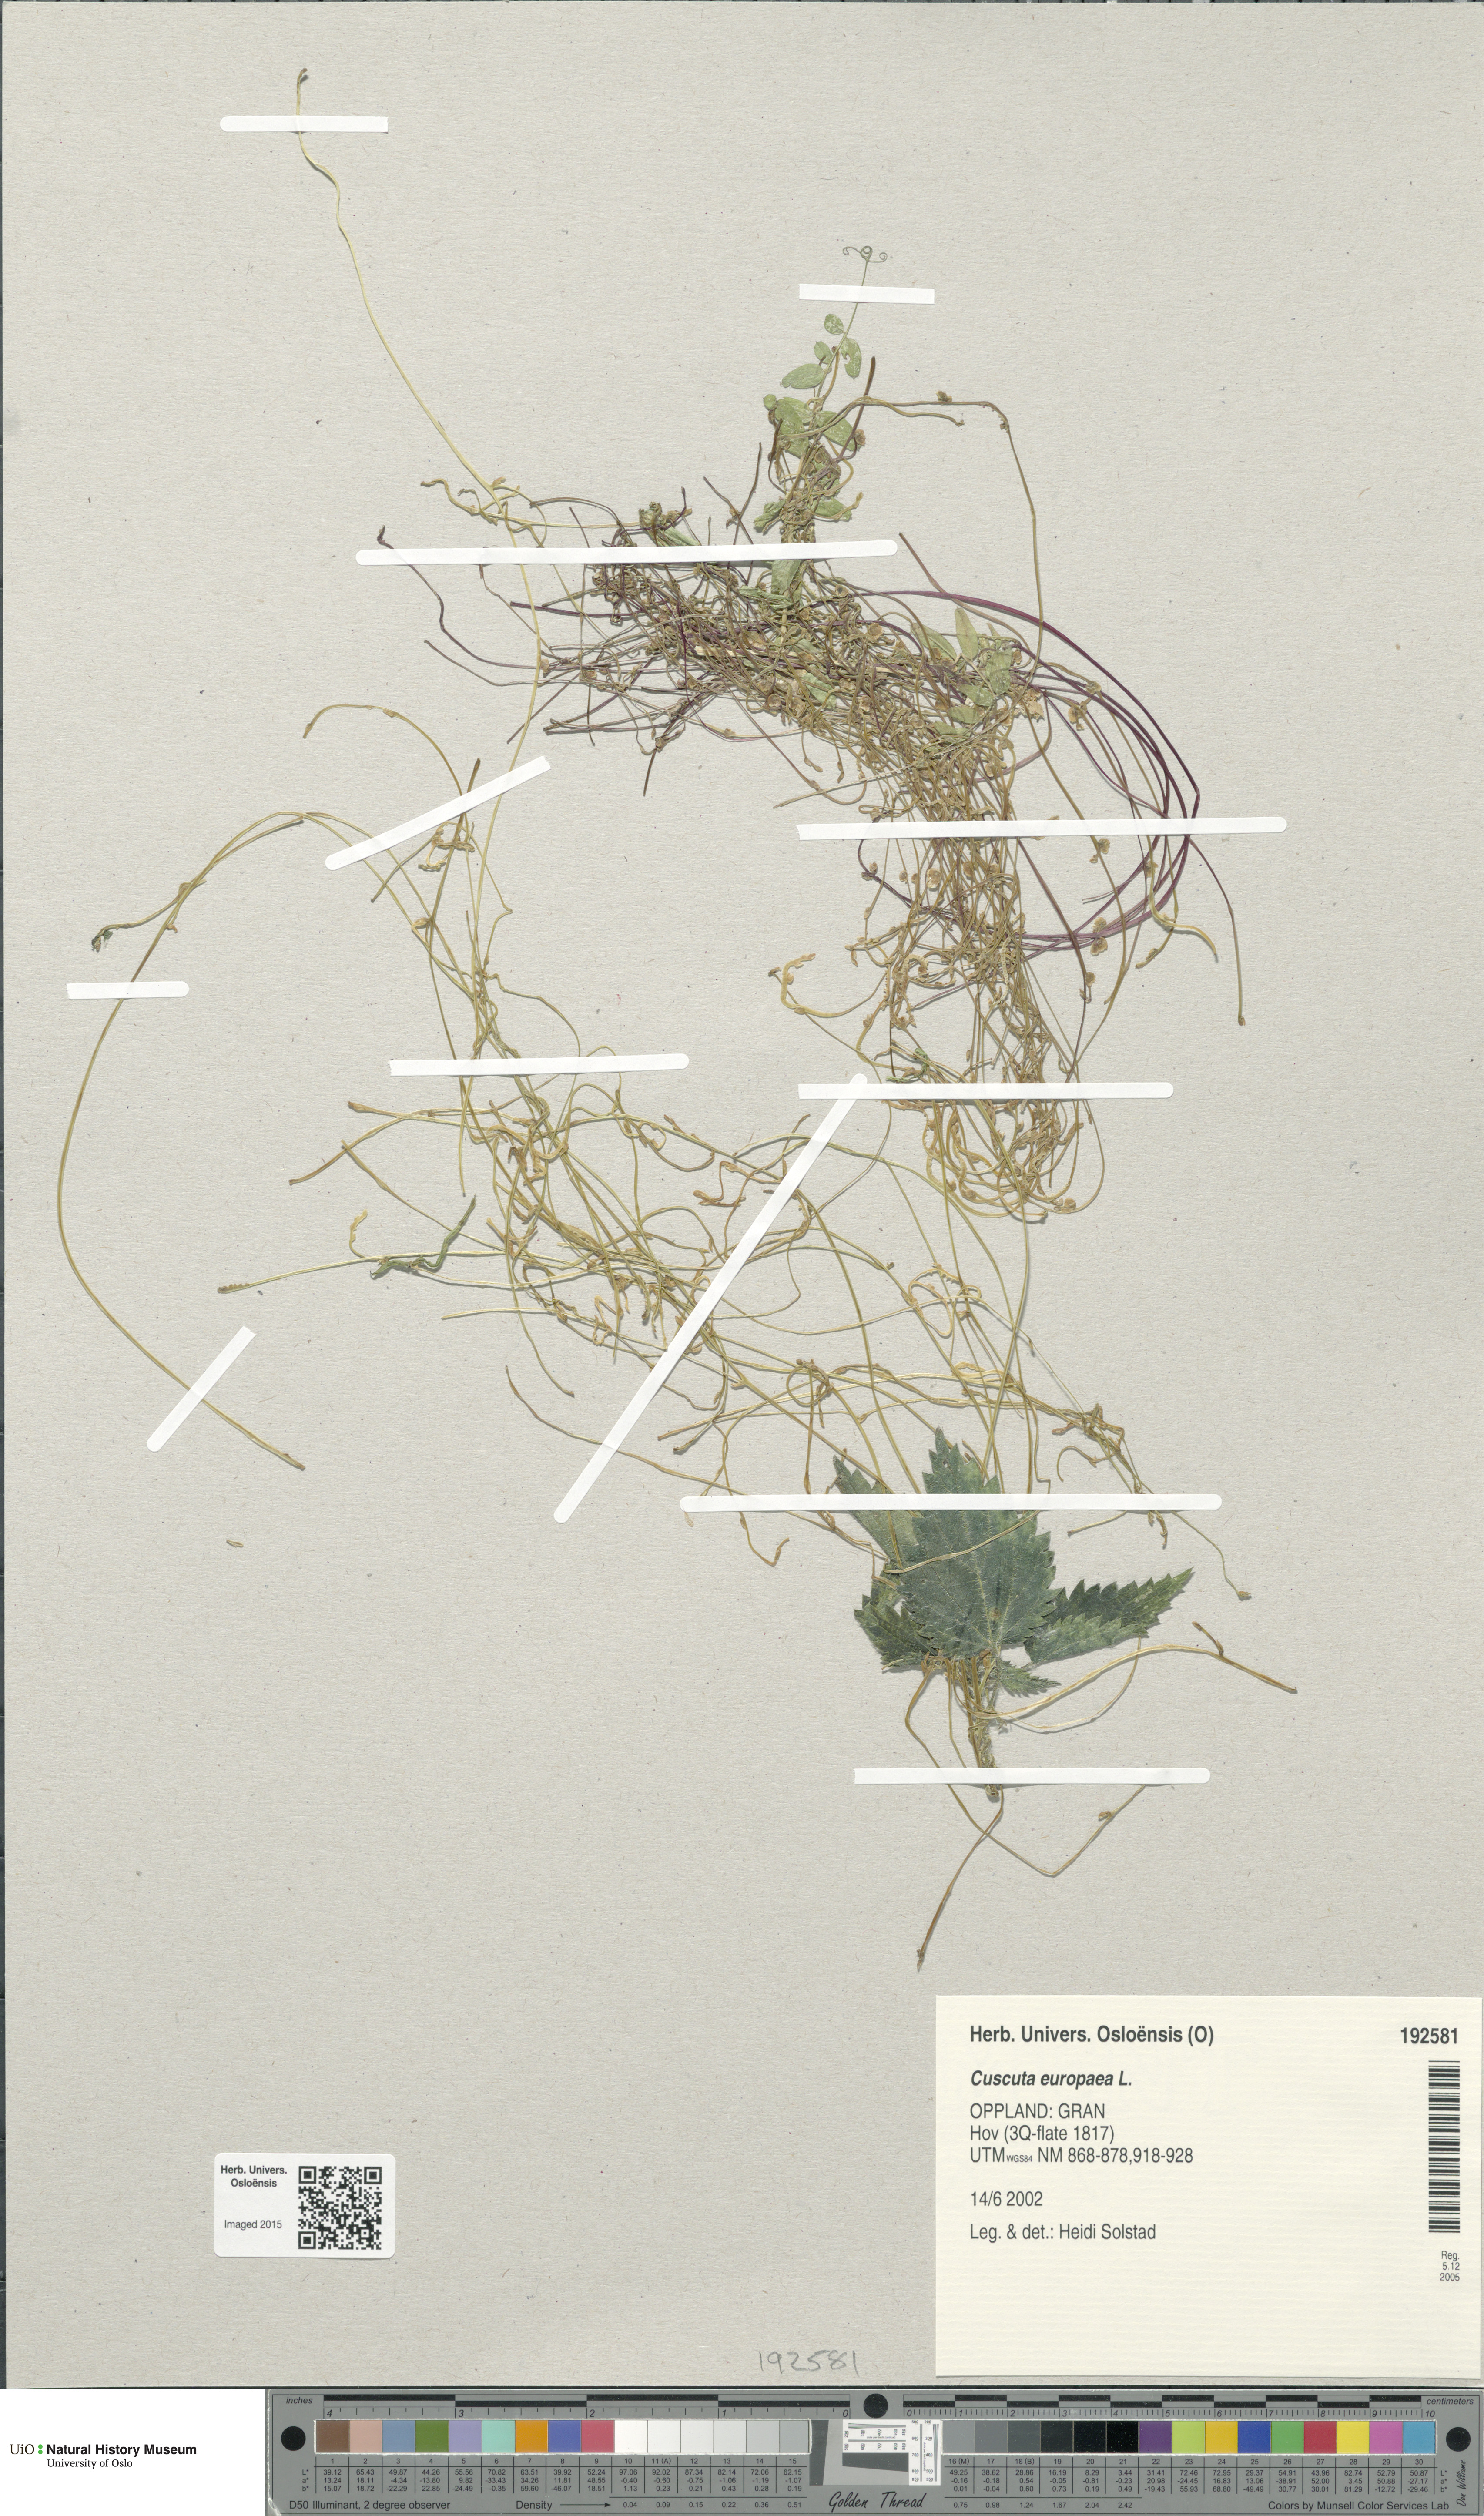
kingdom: Plantae
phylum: Tracheophyta
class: Magnoliopsida
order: Solanales
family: Convolvulaceae
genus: Cuscuta
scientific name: Cuscuta europaea
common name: Greater dodder
